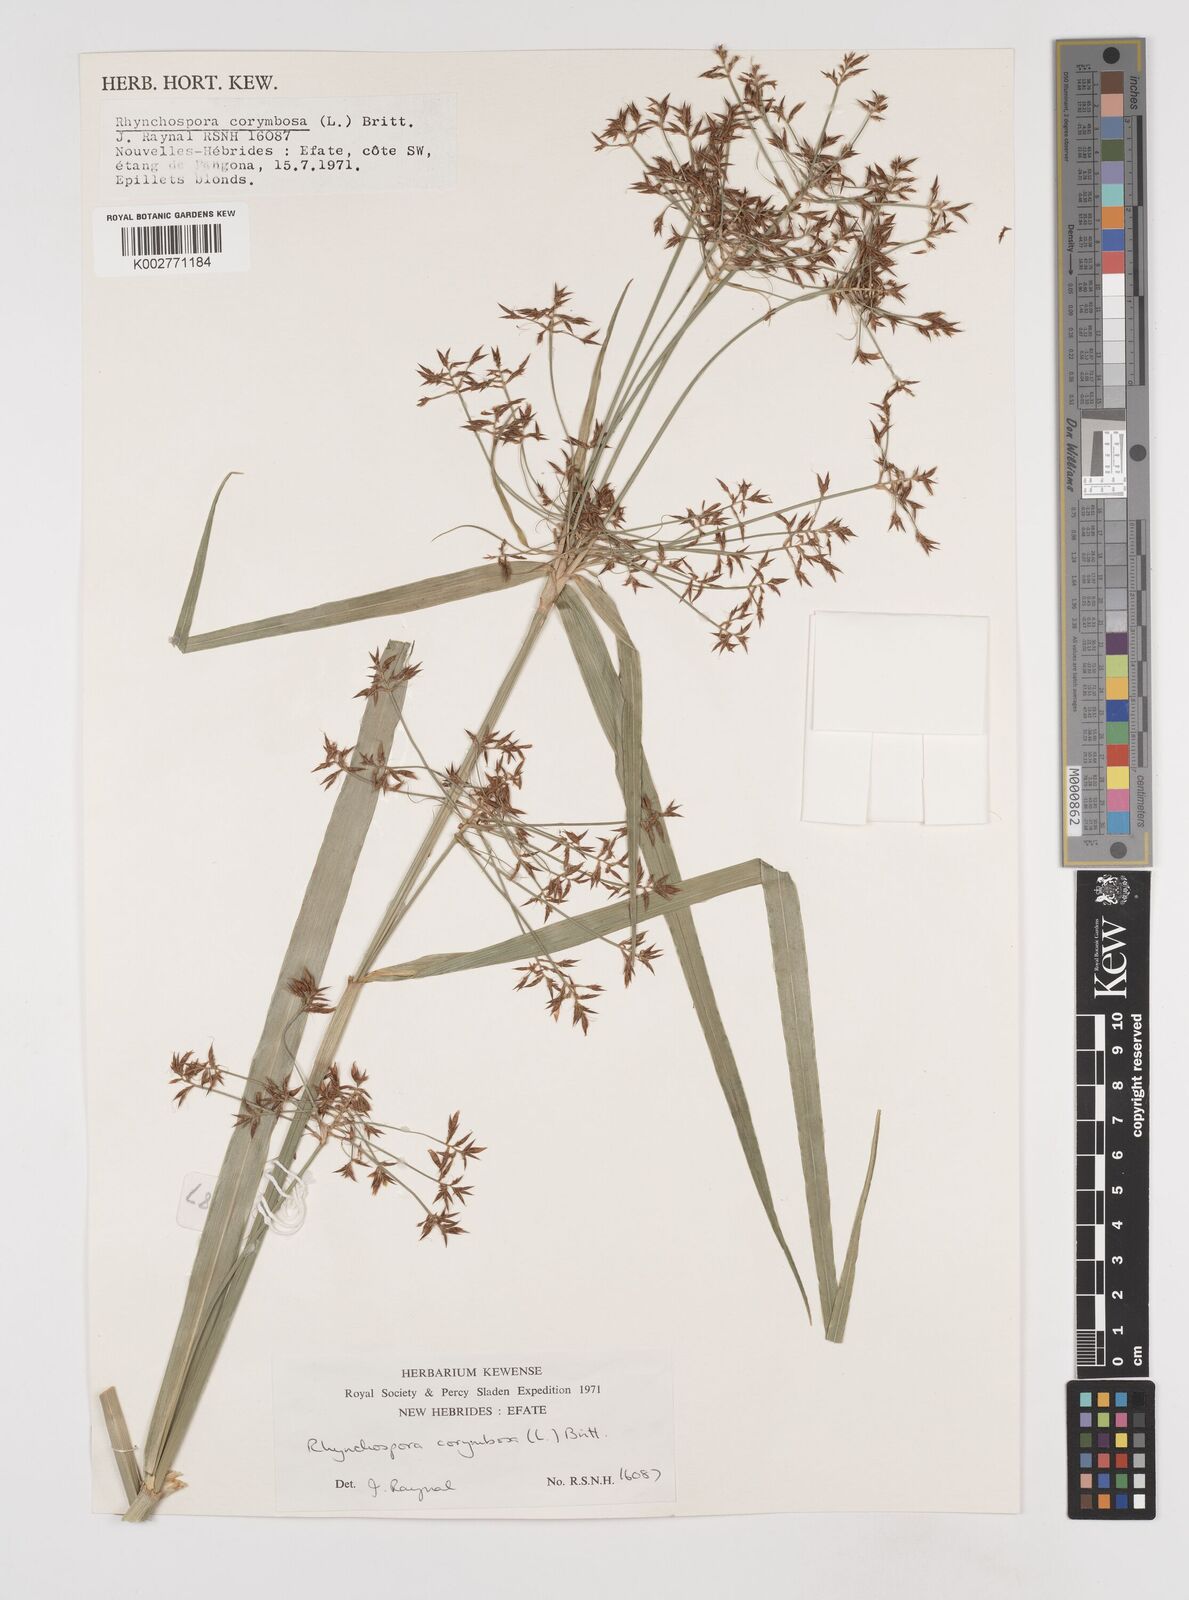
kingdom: Plantae
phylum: Tracheophyta
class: Liliopsida
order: Poales
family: Cyperaceae
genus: Rhynchospora
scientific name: Rhynchospora corymbosa
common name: Golden beak sedge
